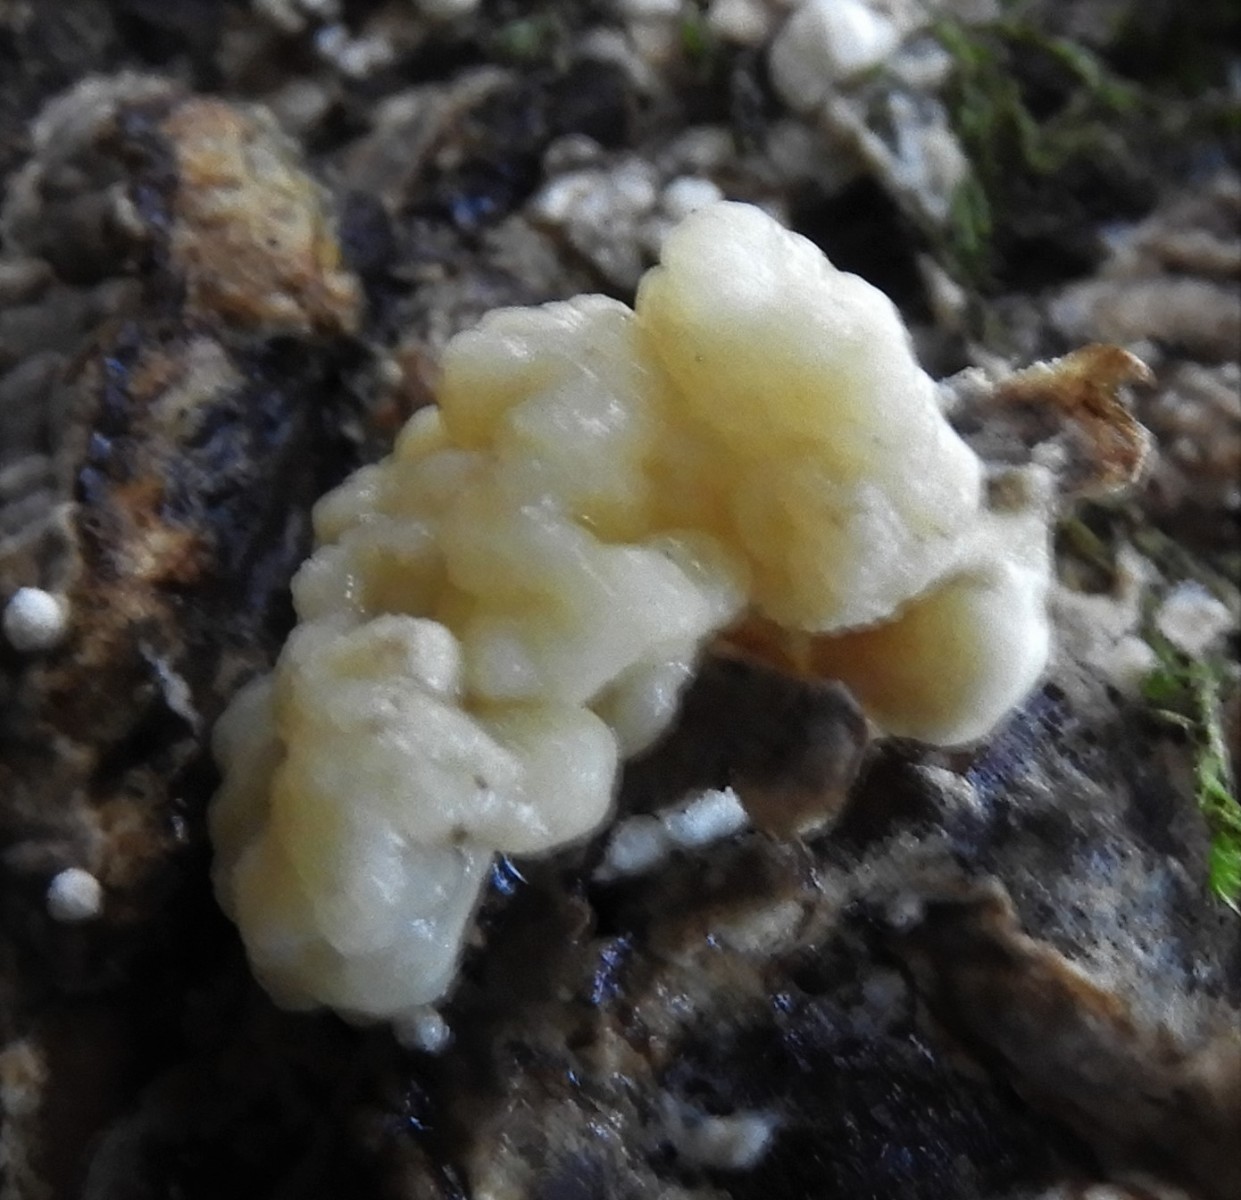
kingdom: Fungi
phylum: Ascomycota
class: Sordariomycetes
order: Xylariales
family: Hypoxylaceae
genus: Nodulisporium
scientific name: Nodulisporium cecidiogenes
